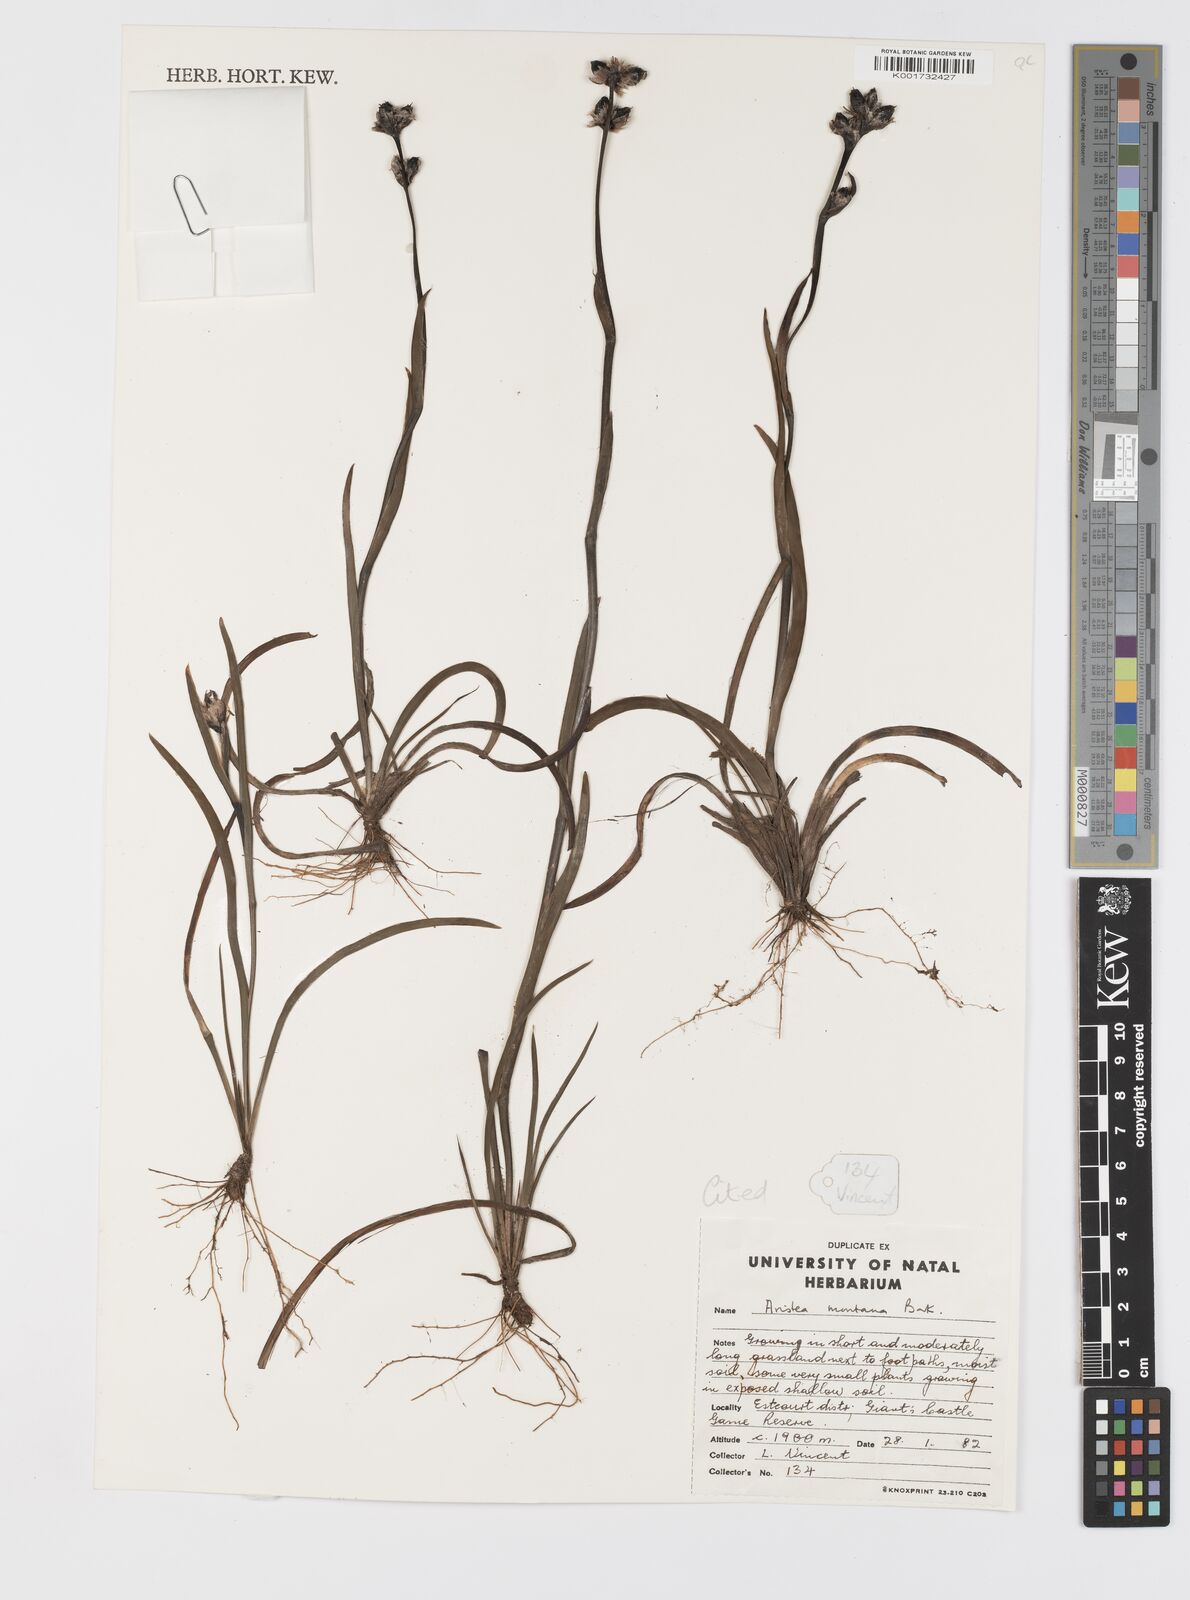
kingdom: Plantae
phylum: Tracheophyta
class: Liliopsida
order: Asparagales
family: Iridaceae
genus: Aristea
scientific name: Aristea montana
